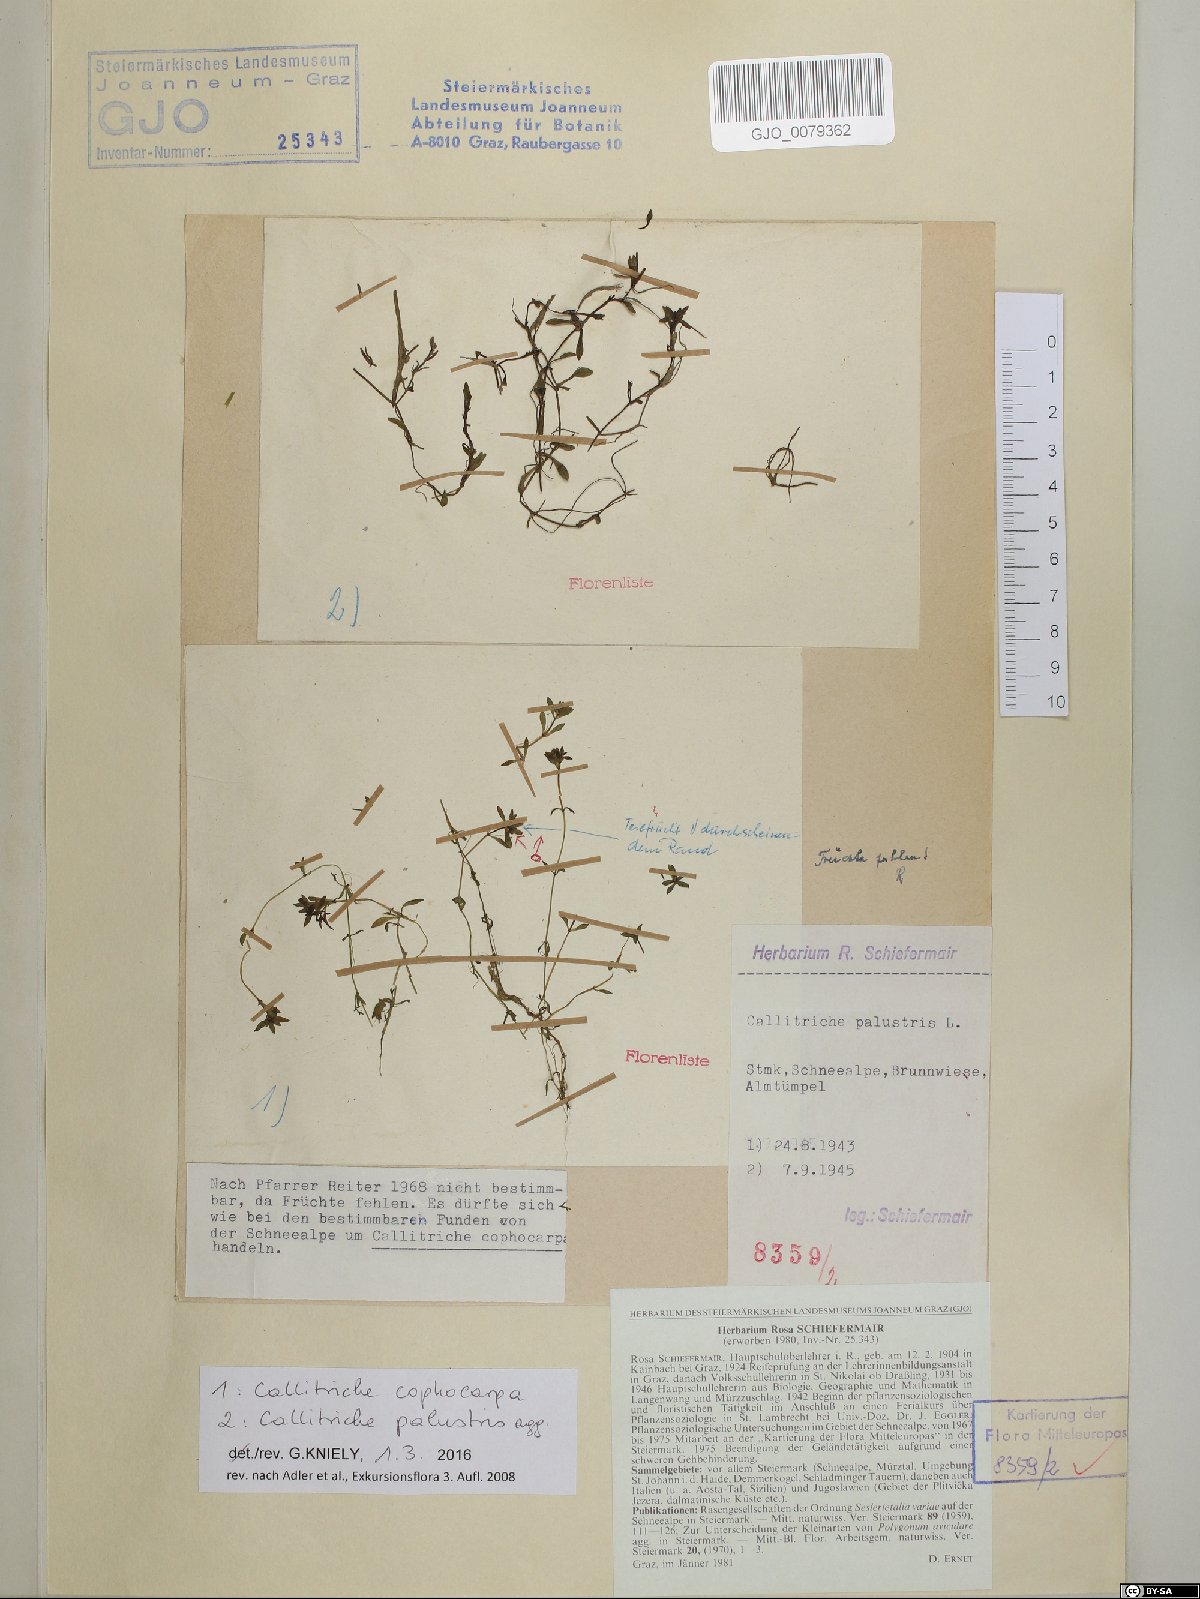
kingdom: Plantae
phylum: Tracheophyta
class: Magnoliopsida
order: Lamiales
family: Plantaginaceae
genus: Callitriche
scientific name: Callitriche cophocarpa
